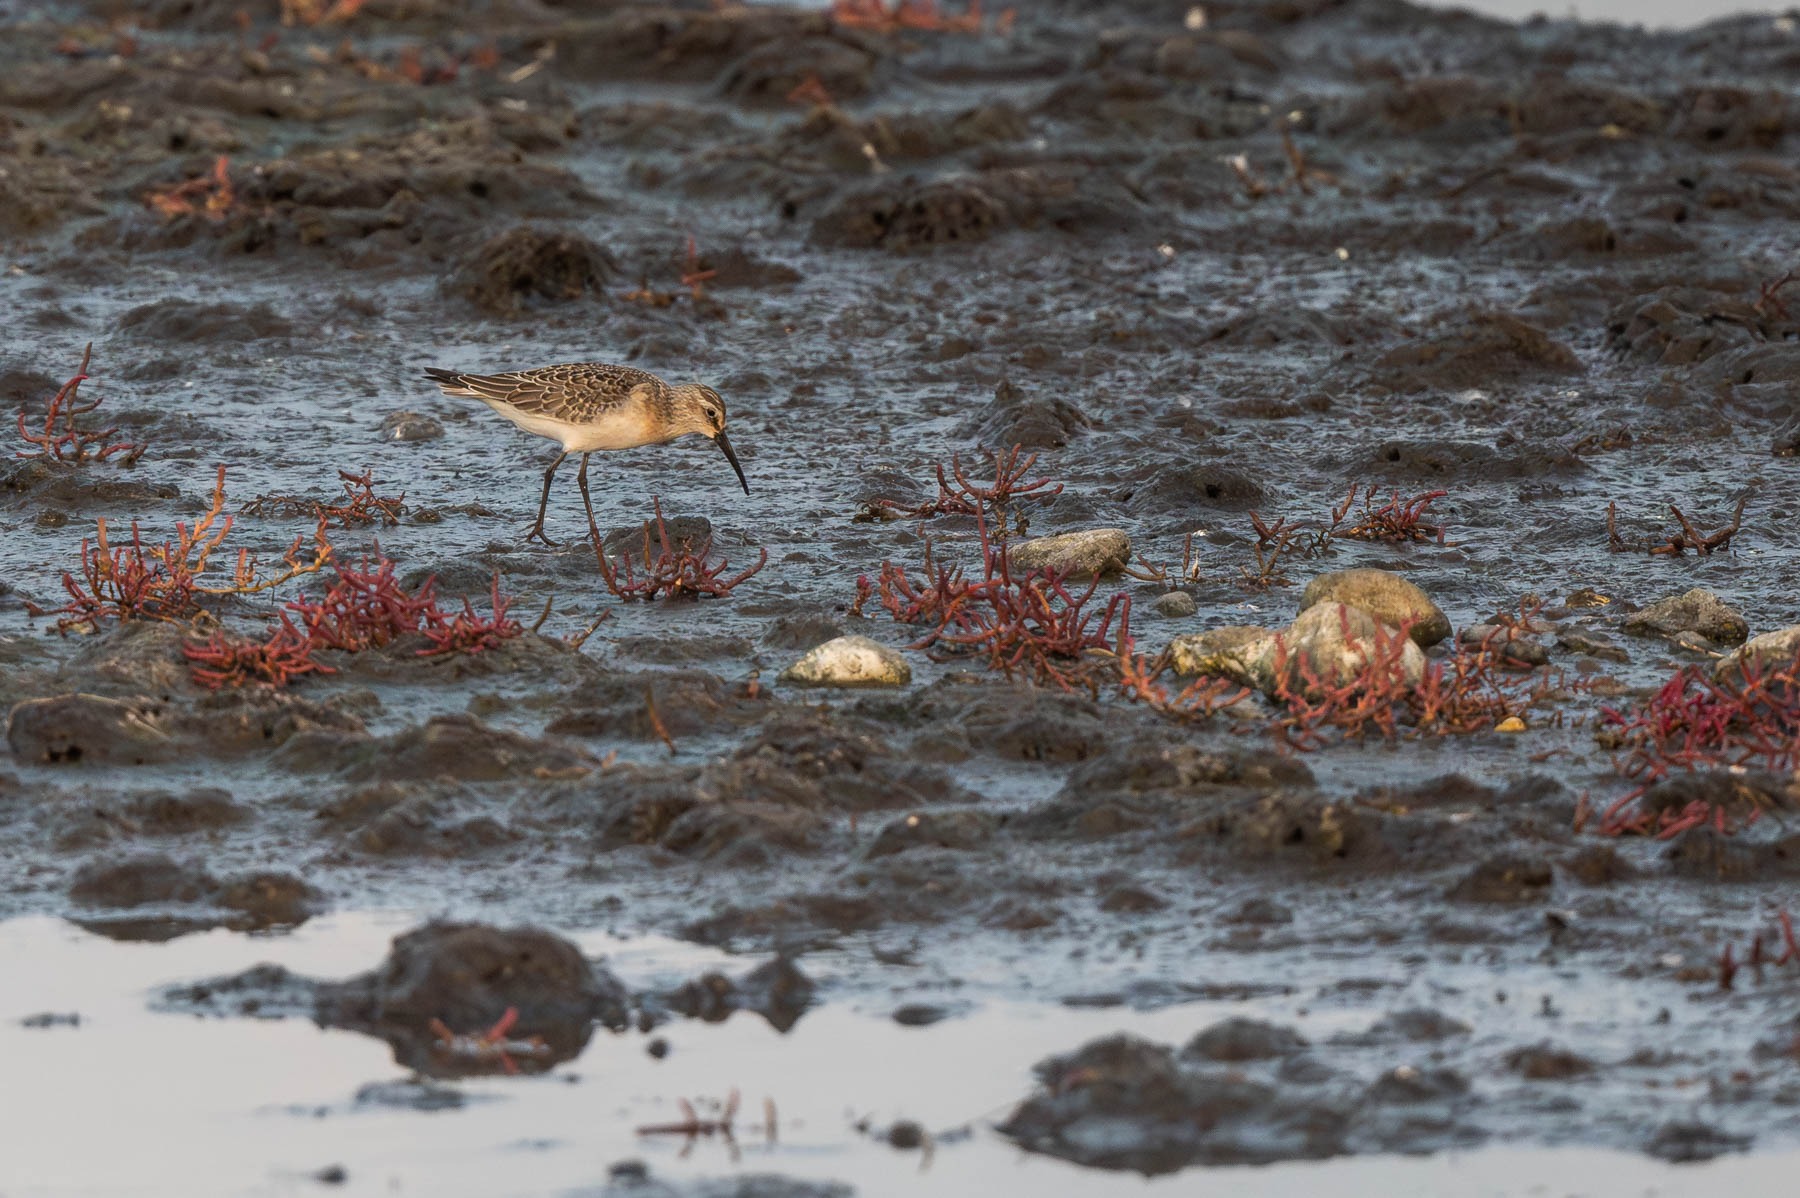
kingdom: Animalia
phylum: Chordata
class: Aves
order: Charadriiformes
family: Scolopacidae
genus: Calidris
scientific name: Calidris ferruginea
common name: Krumnæbbet ryle
